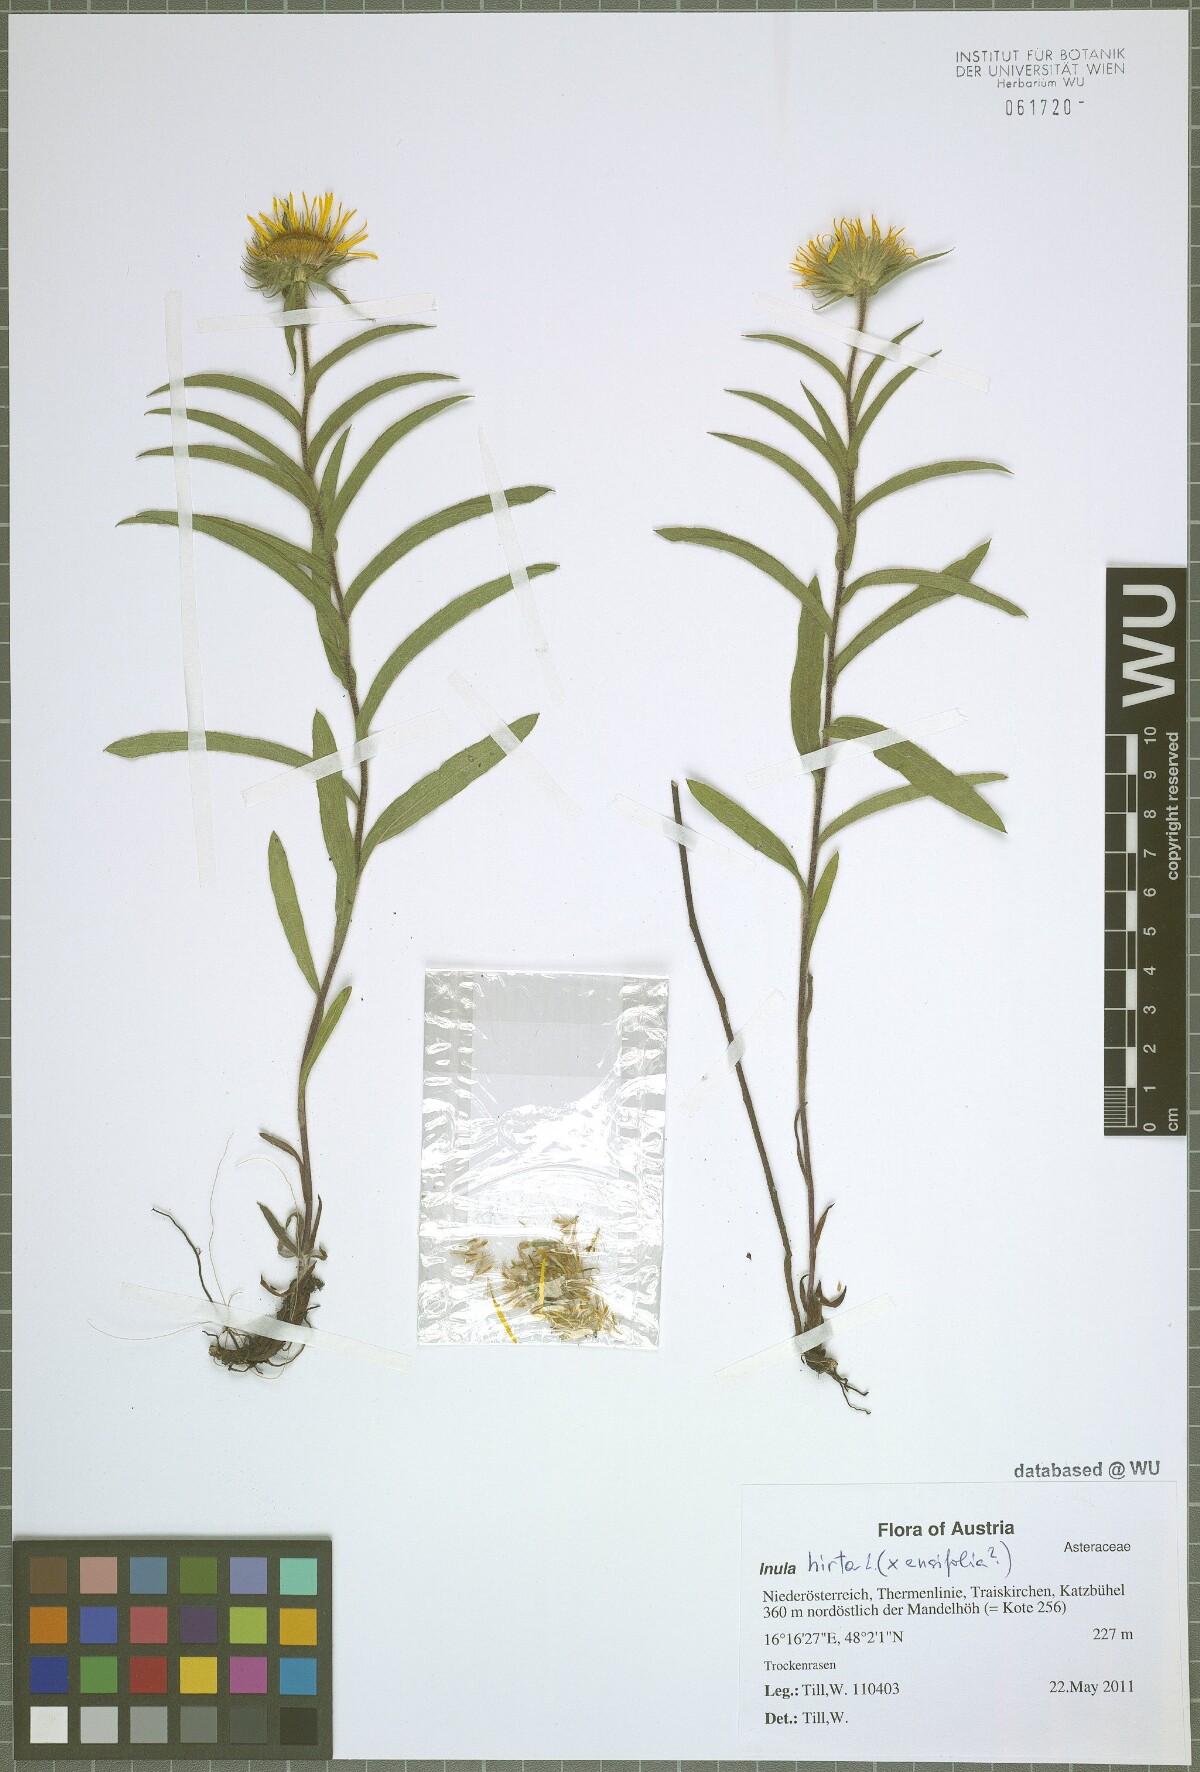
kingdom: Plantae
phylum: Tracheophyta
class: Magnoliopsida
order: Asterales
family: Asteraceae
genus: Pentanema
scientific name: Pentanema hirtum
